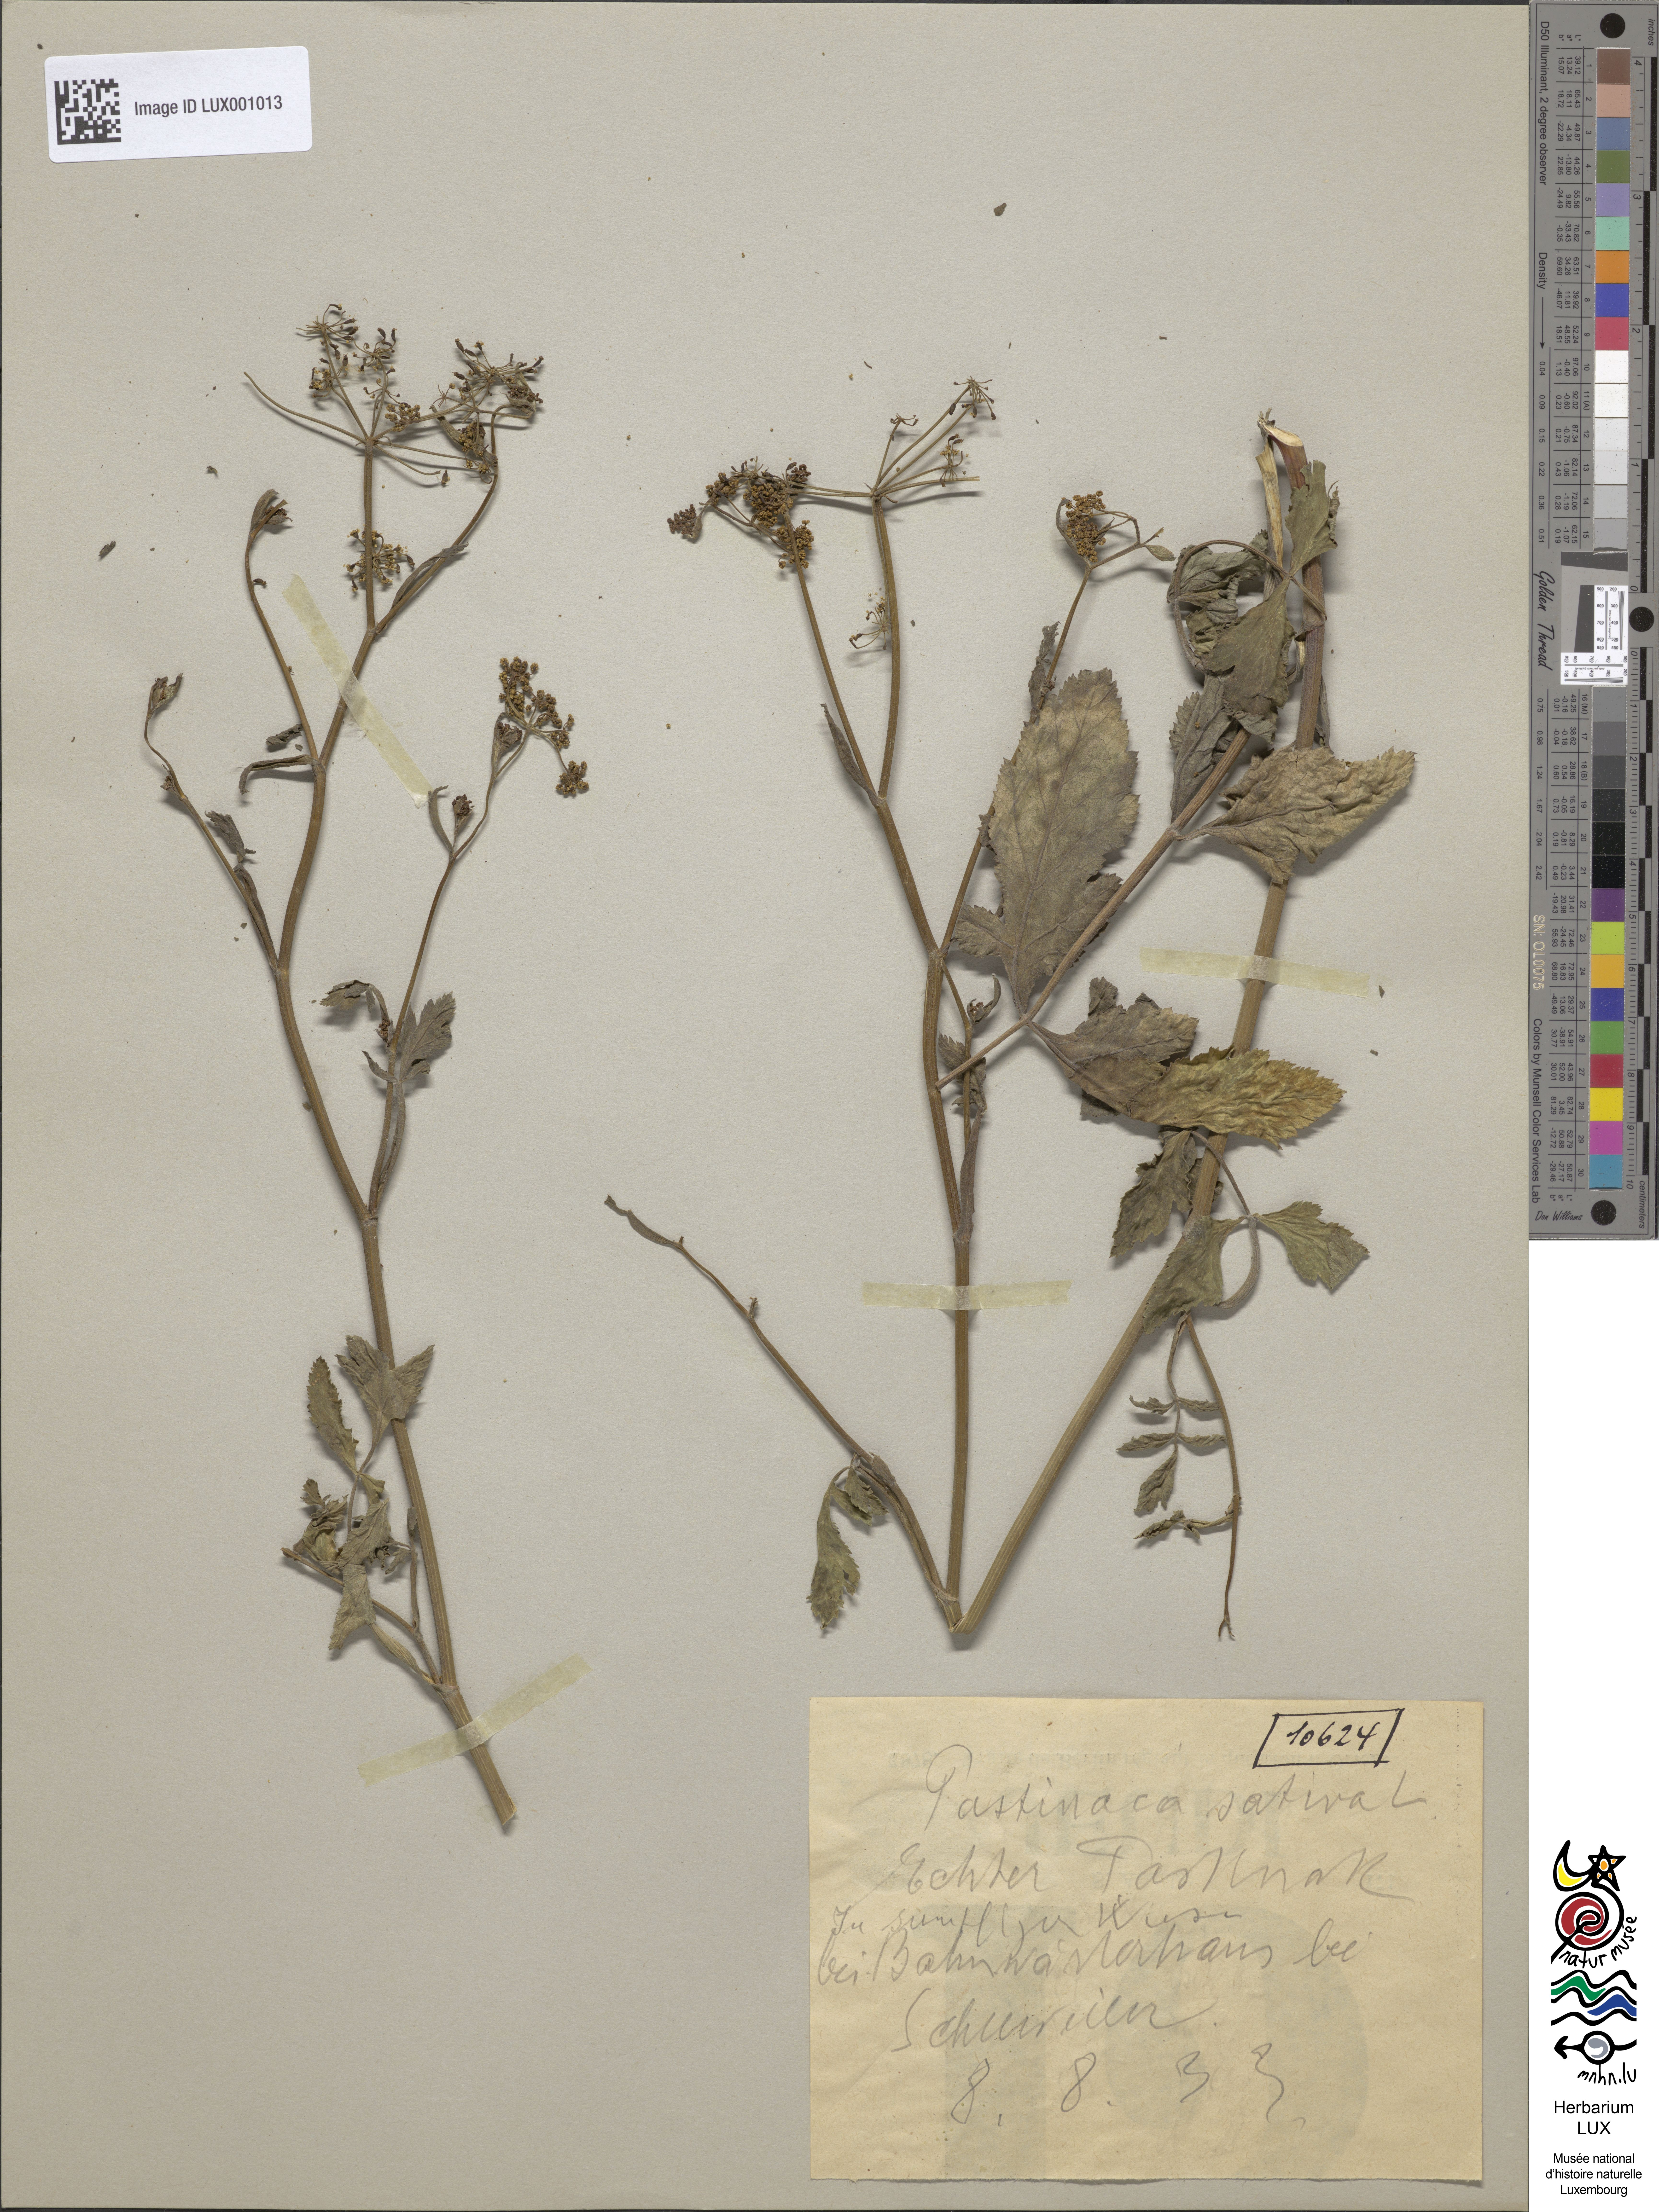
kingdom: Plantae
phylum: Tracheophyta
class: Magnoliopsida
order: Apiales
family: Apiaceae
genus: Pastinaca
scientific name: Pastinaca sativa
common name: Wild parsnip
